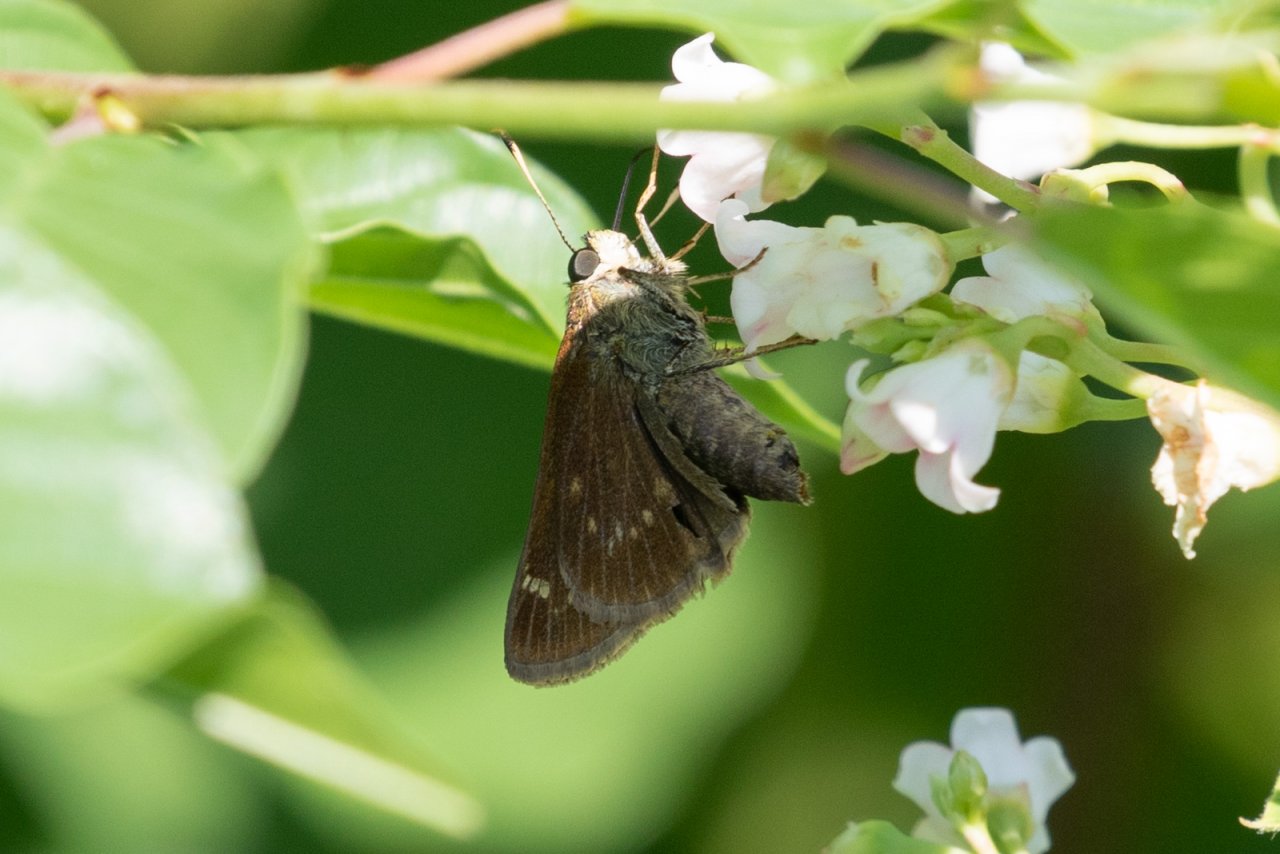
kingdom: Animalia
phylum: Arthropoda
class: Insecta
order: Lepidoptera
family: Hesperiidae
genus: Vernia
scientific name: Vernia verna
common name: Little Glassywing
